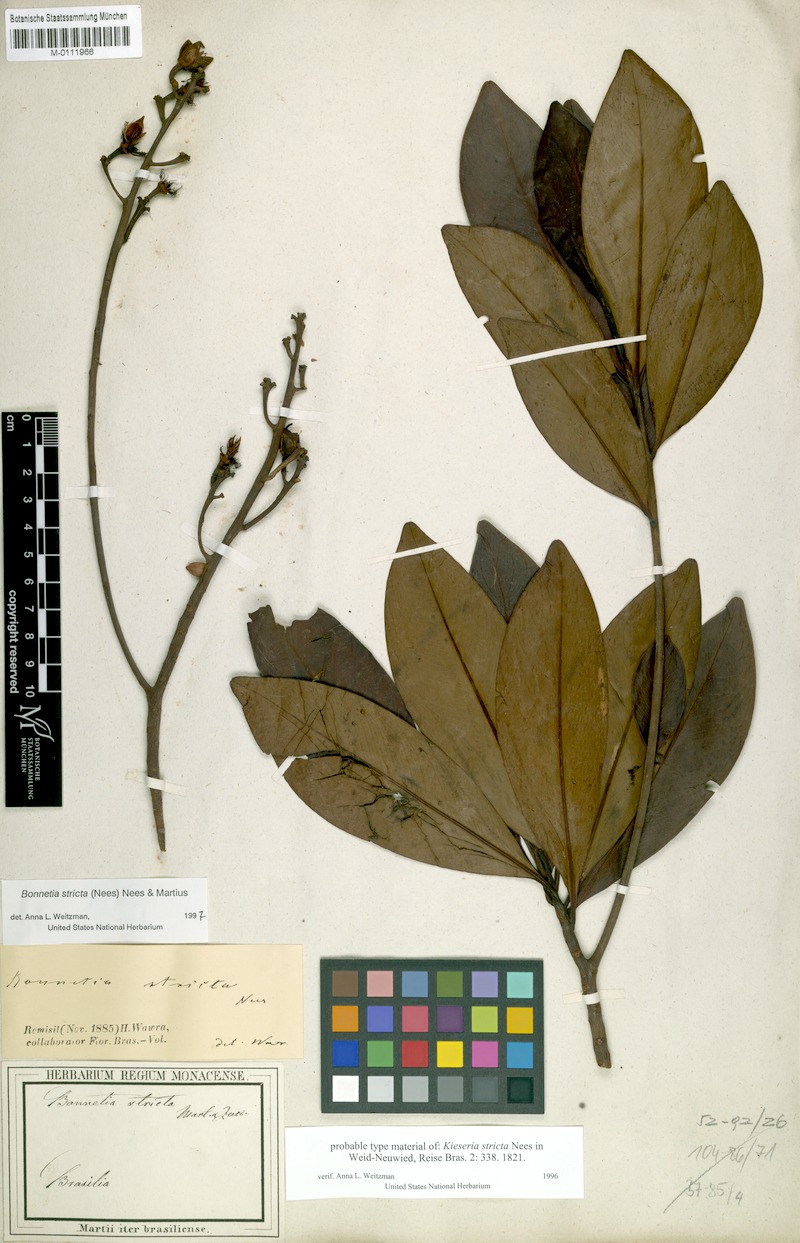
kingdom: Plantae
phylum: Tracheophyta
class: Magnoliopsida
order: Malpighiales
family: Bonnetiaceae
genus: Bonnetia
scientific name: Bonnetia stricta
